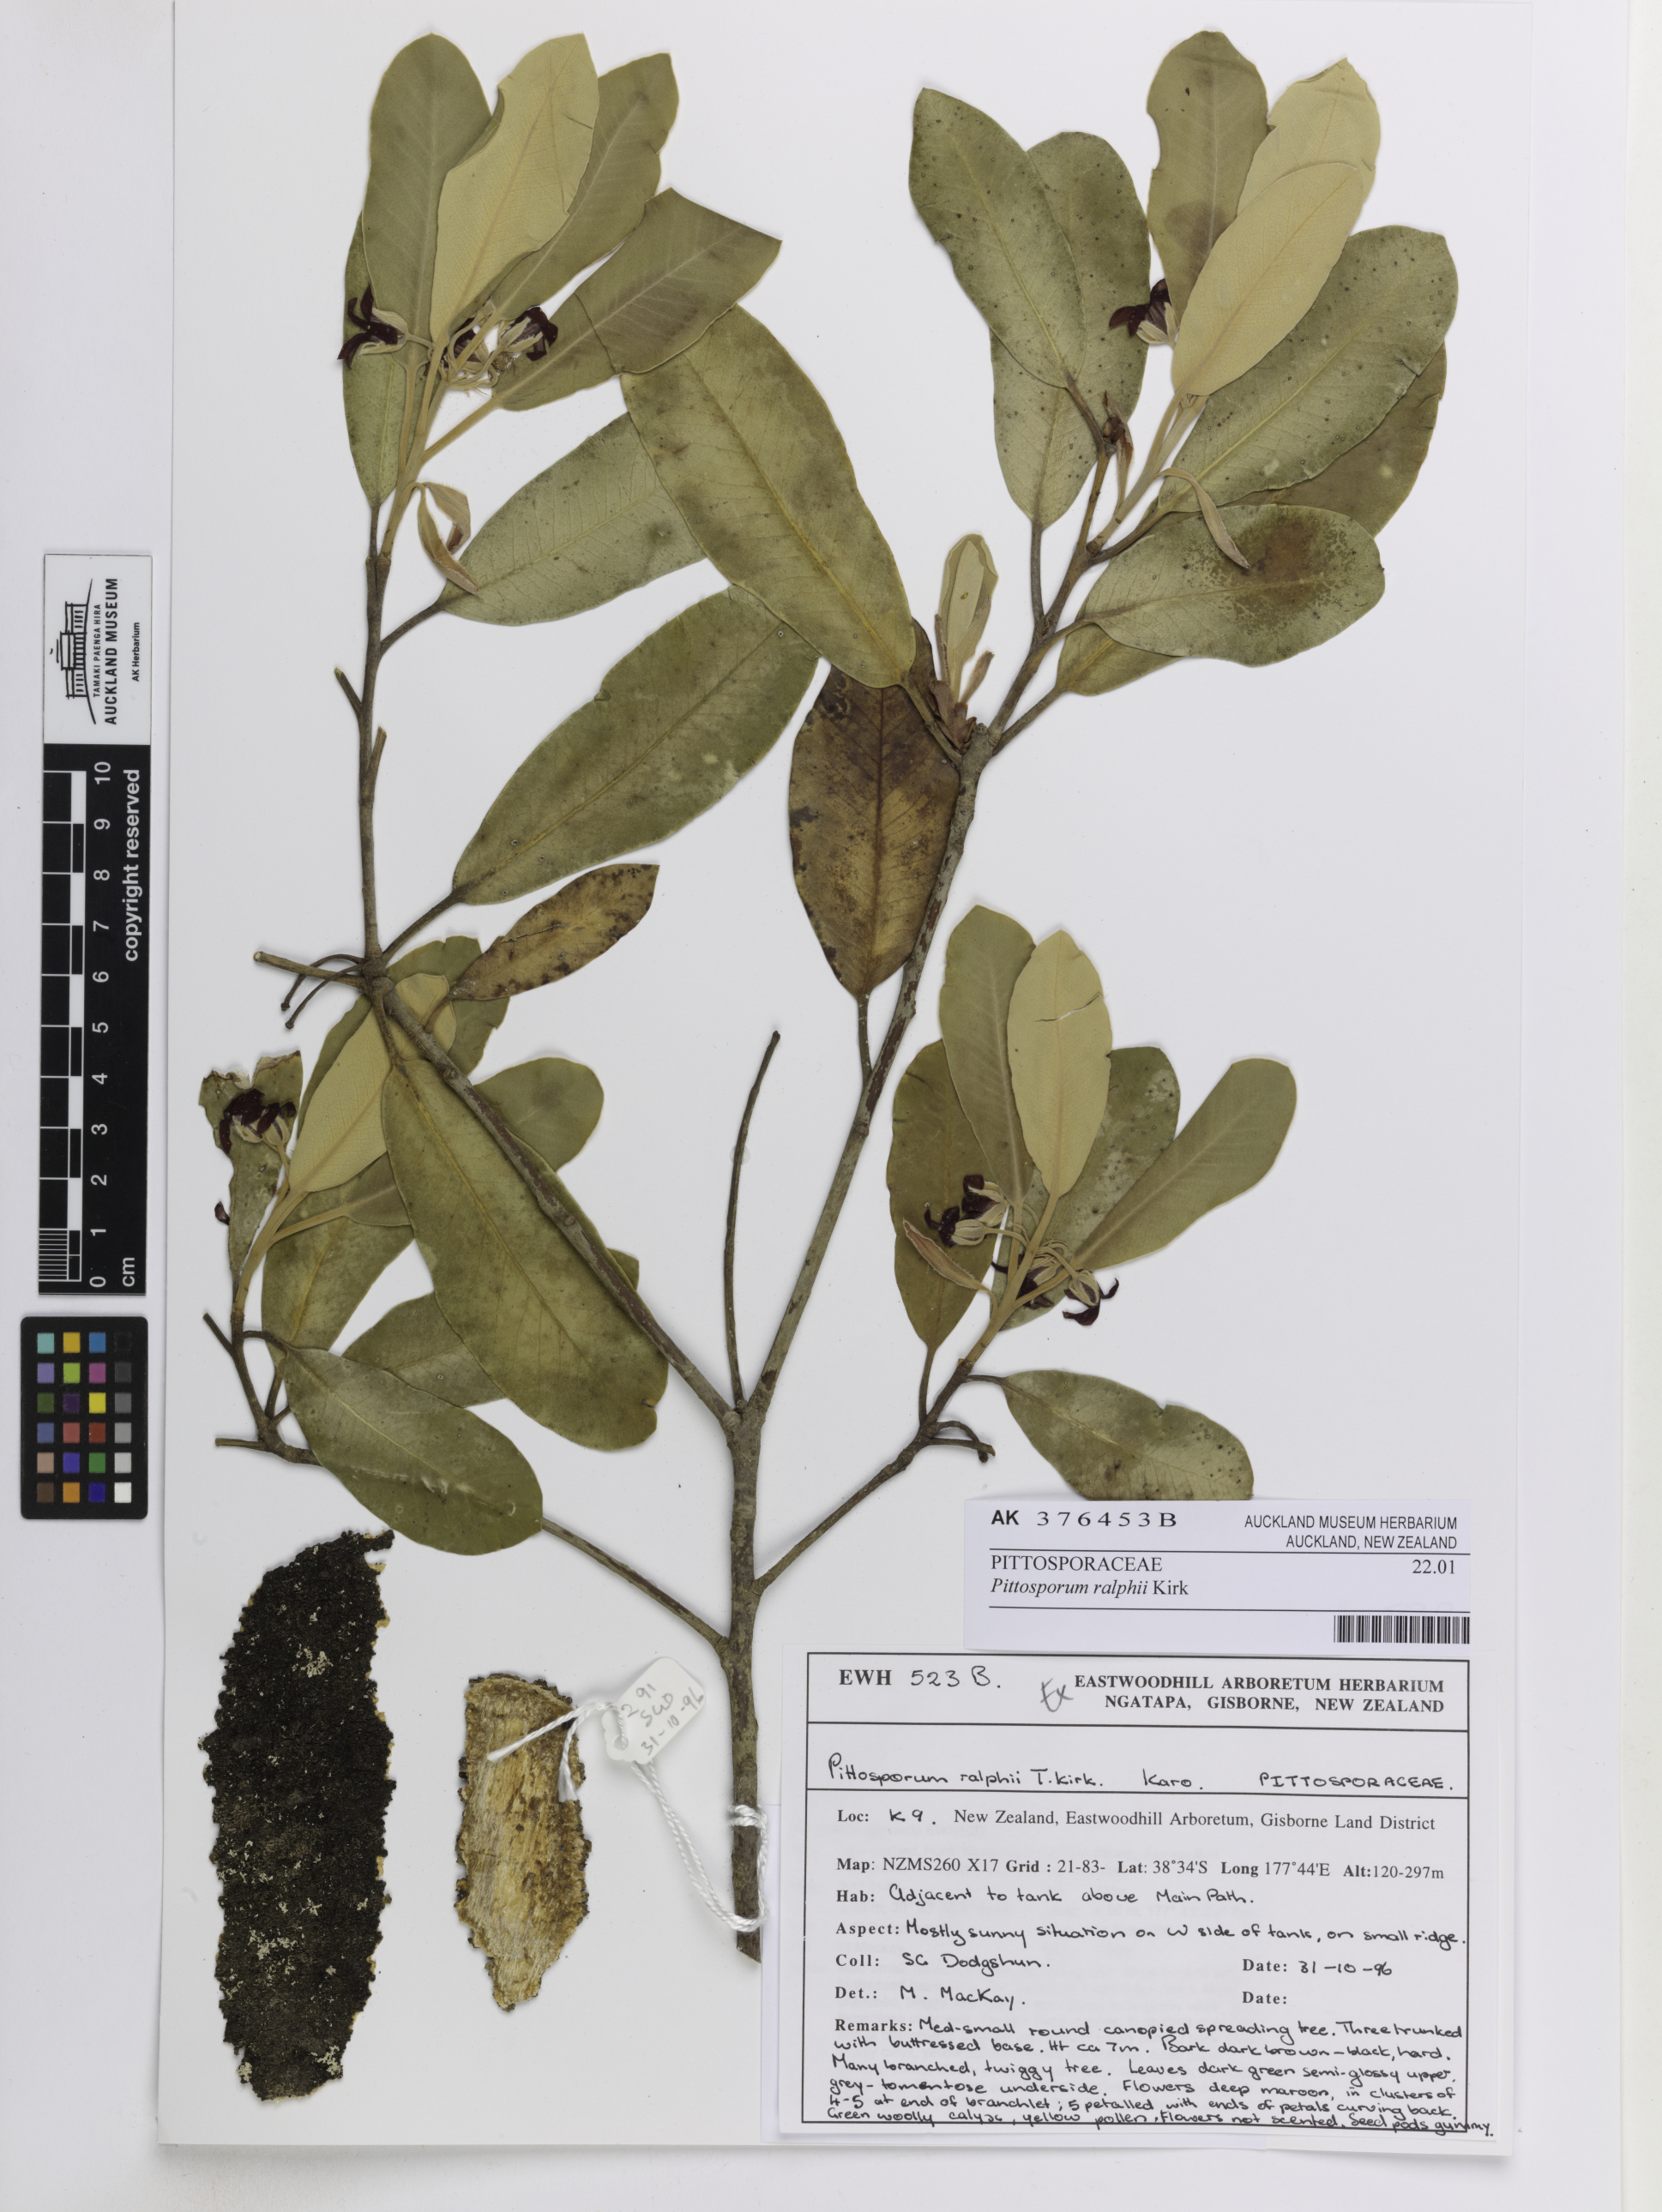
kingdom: Plantae
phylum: Tracheophyta
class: Magnoliopsida
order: Apiales
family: Pittosporaceae
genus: Pittosporum
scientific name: Pittosporum ralphii
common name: Ralph's desertwillow
